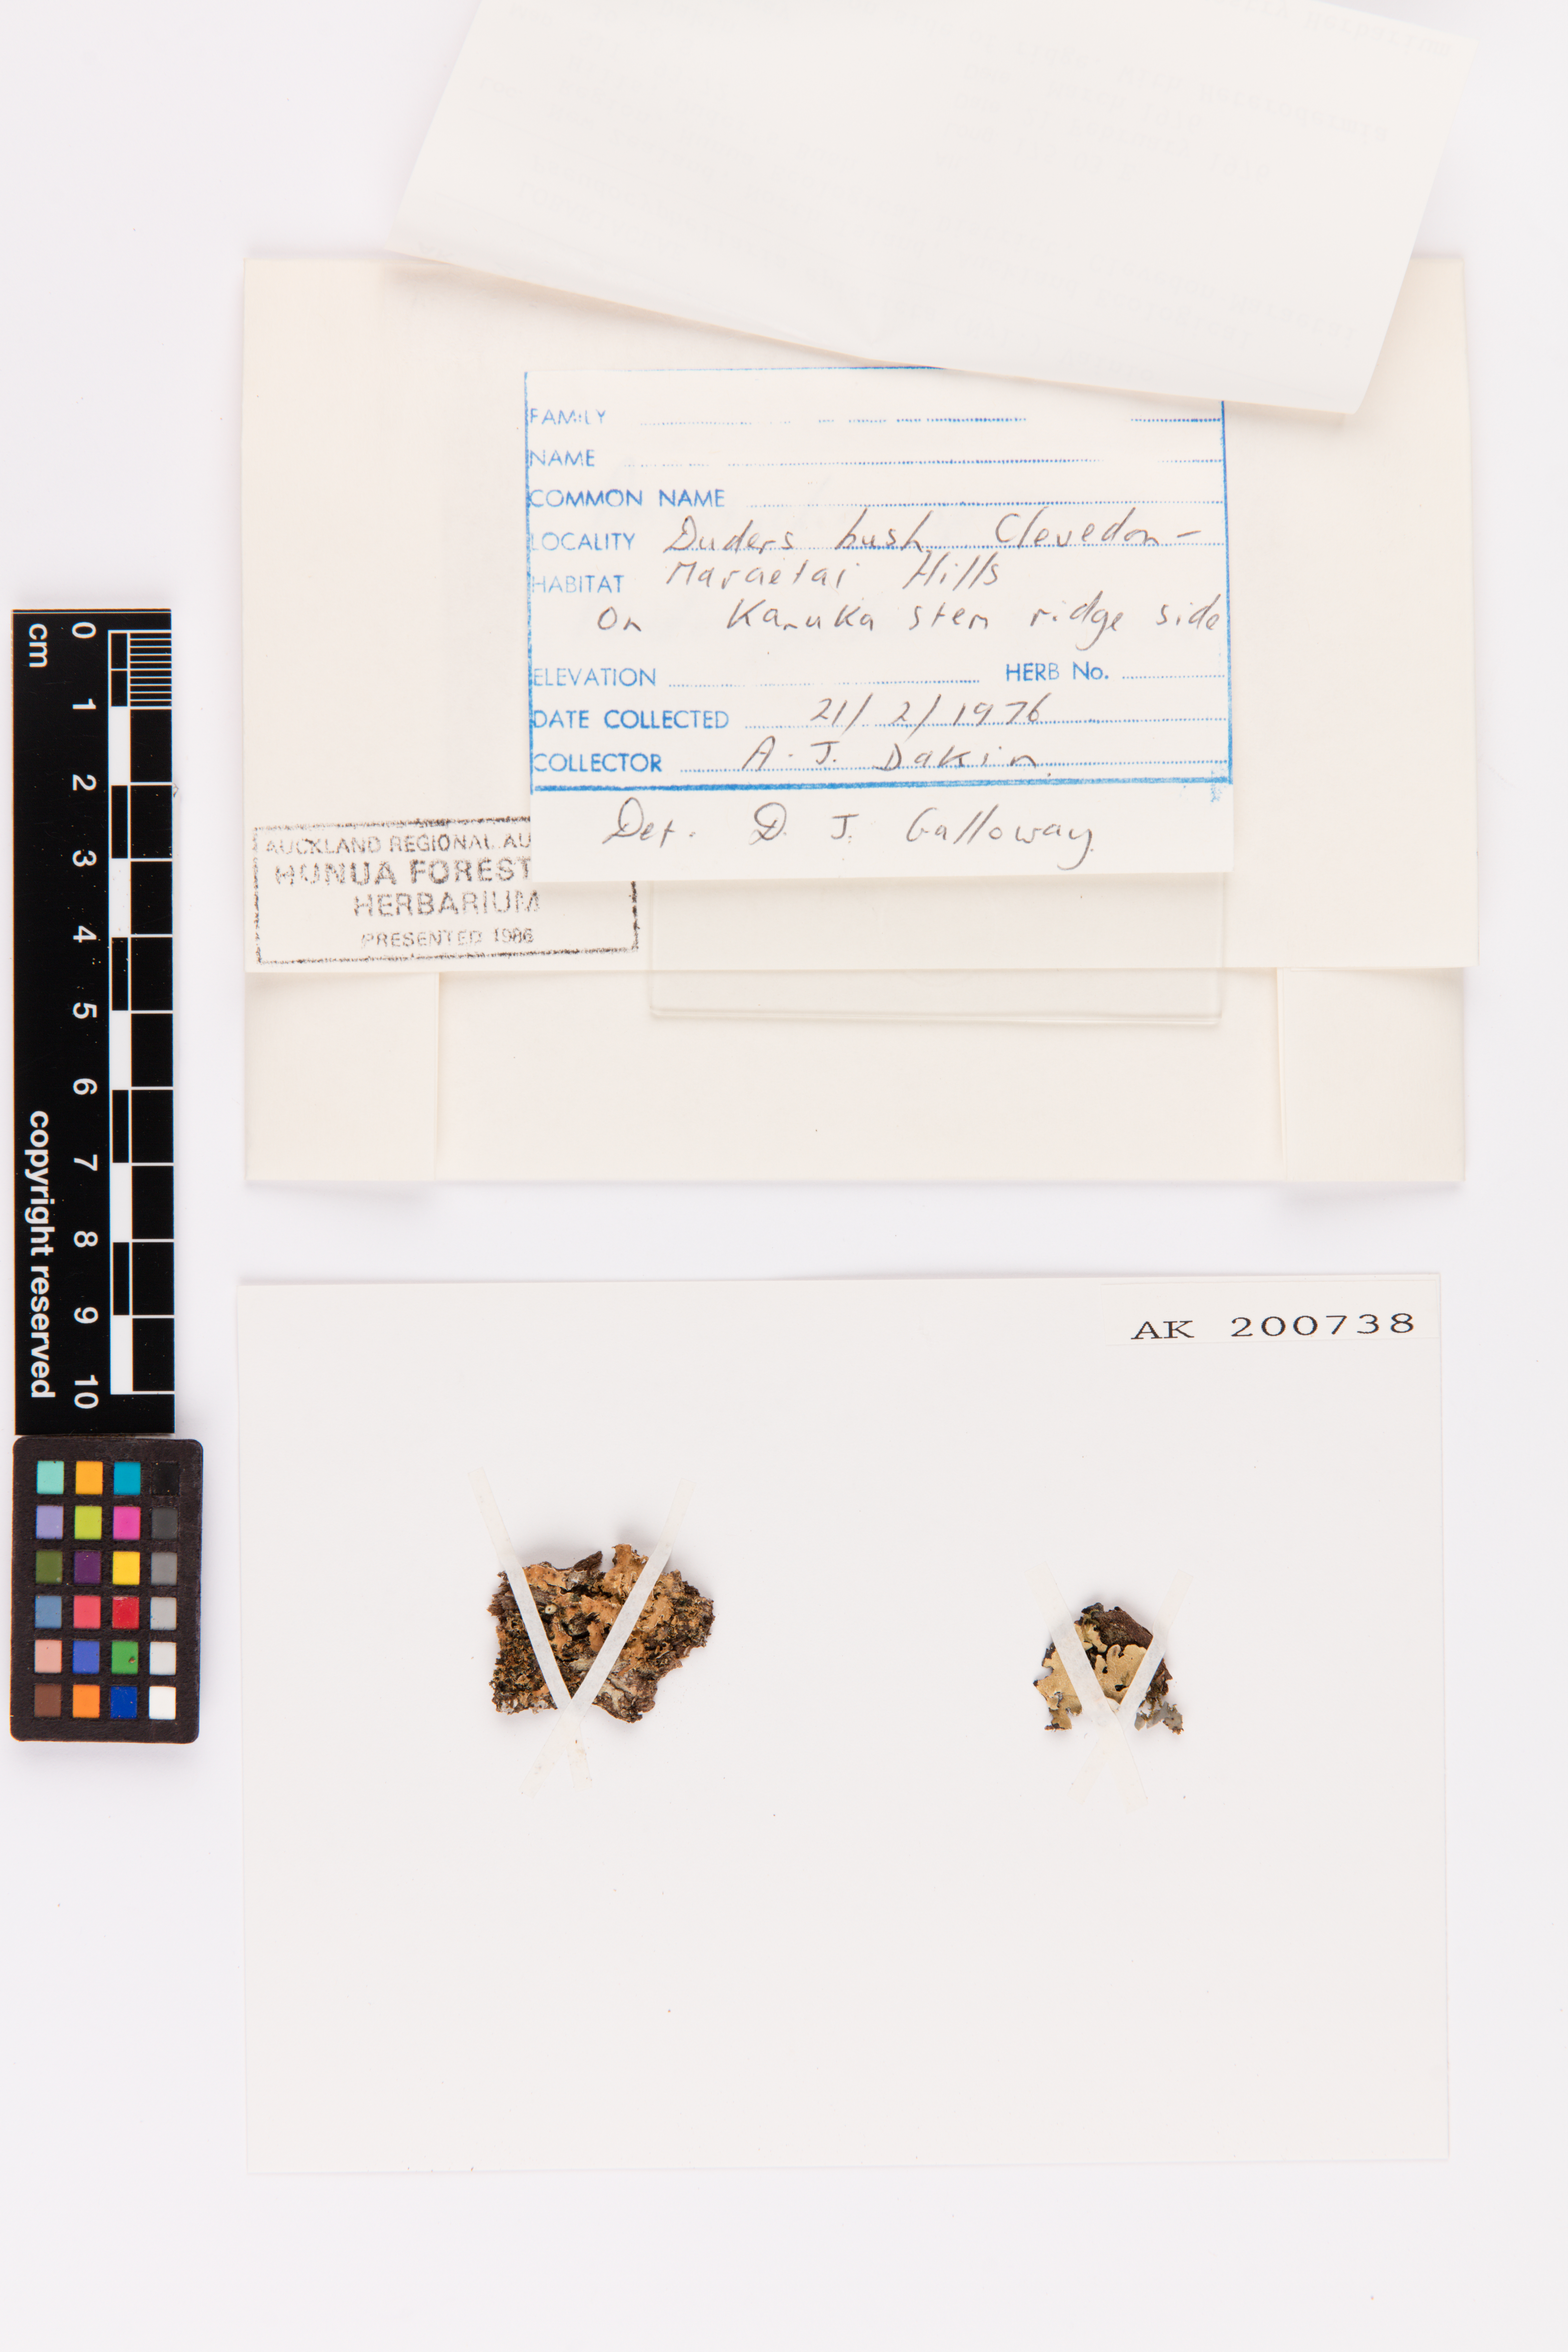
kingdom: Fungi
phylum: Ascomycota
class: Lecanoromycetes
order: Peltigerales
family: Lobariaceae
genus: Pseudocyphellaria
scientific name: Pseudocyphellaria episticta
